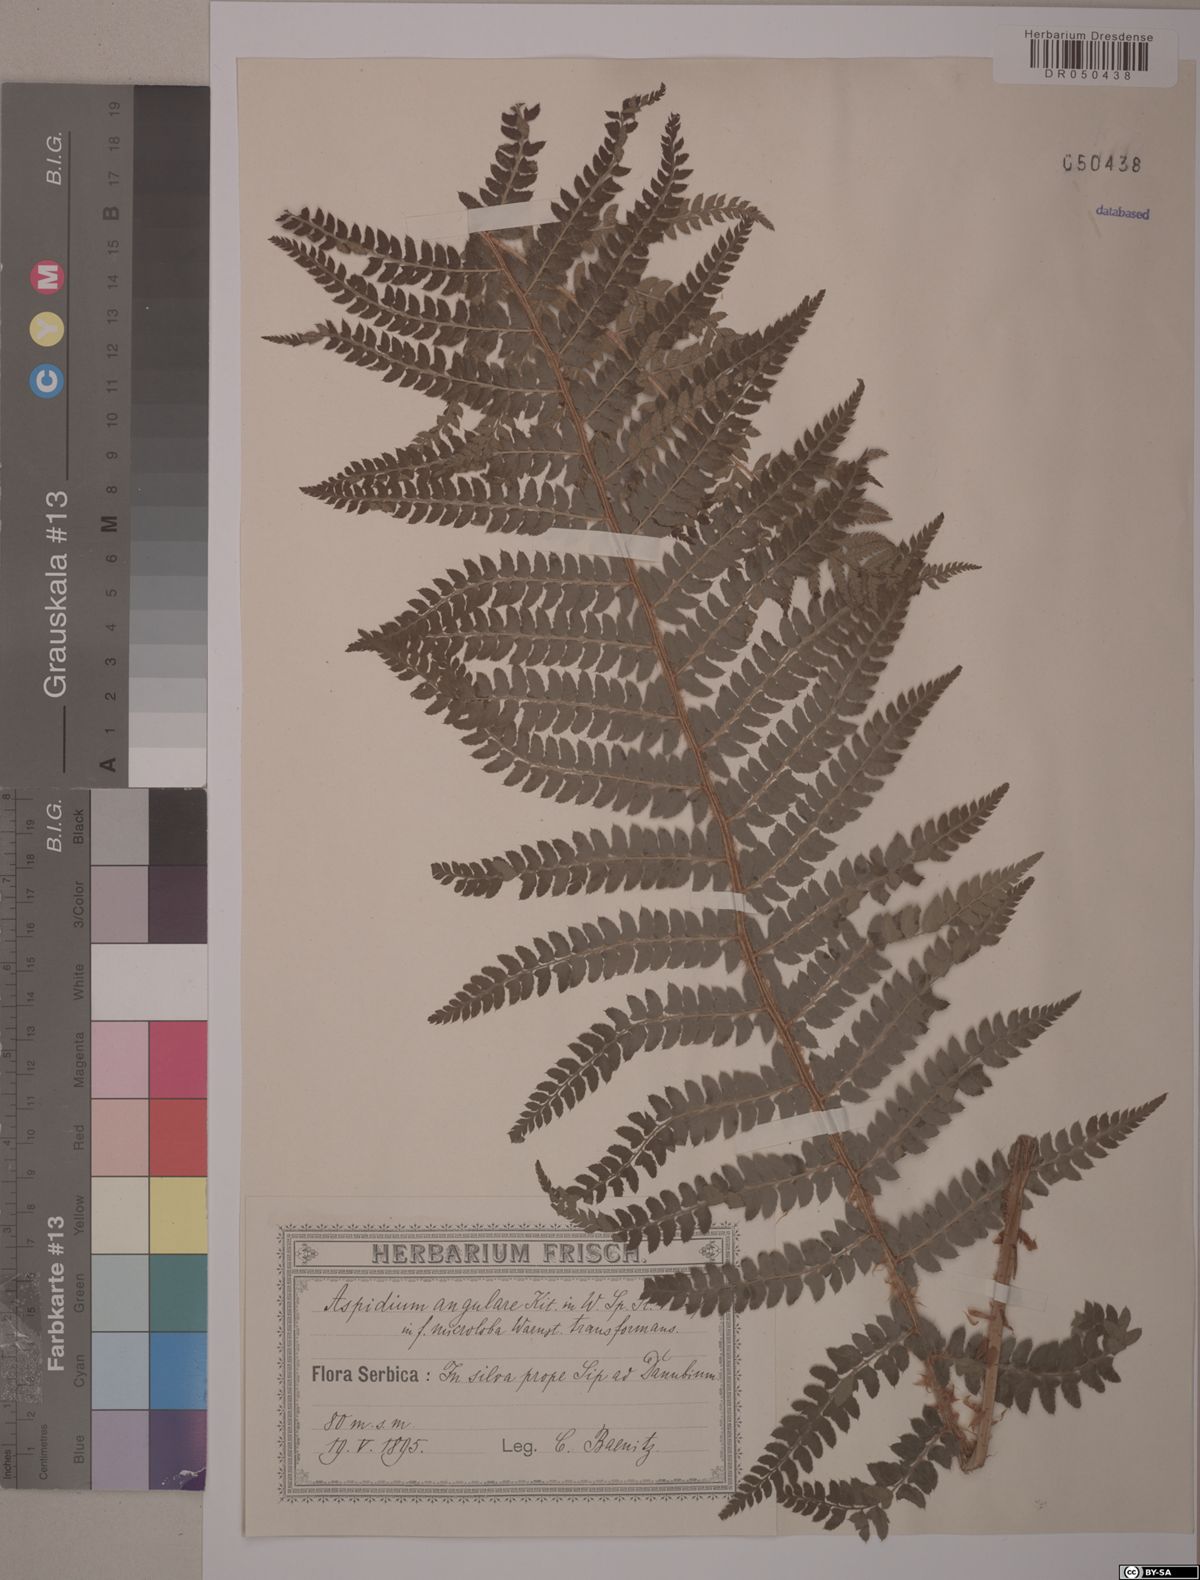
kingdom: Plantae
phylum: Tracheophyta
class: Polypodiopsida
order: Polypodiales
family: Dryopteridaceae
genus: Polystichum
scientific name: Polystichum setiferum
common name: Soft shield-fern
